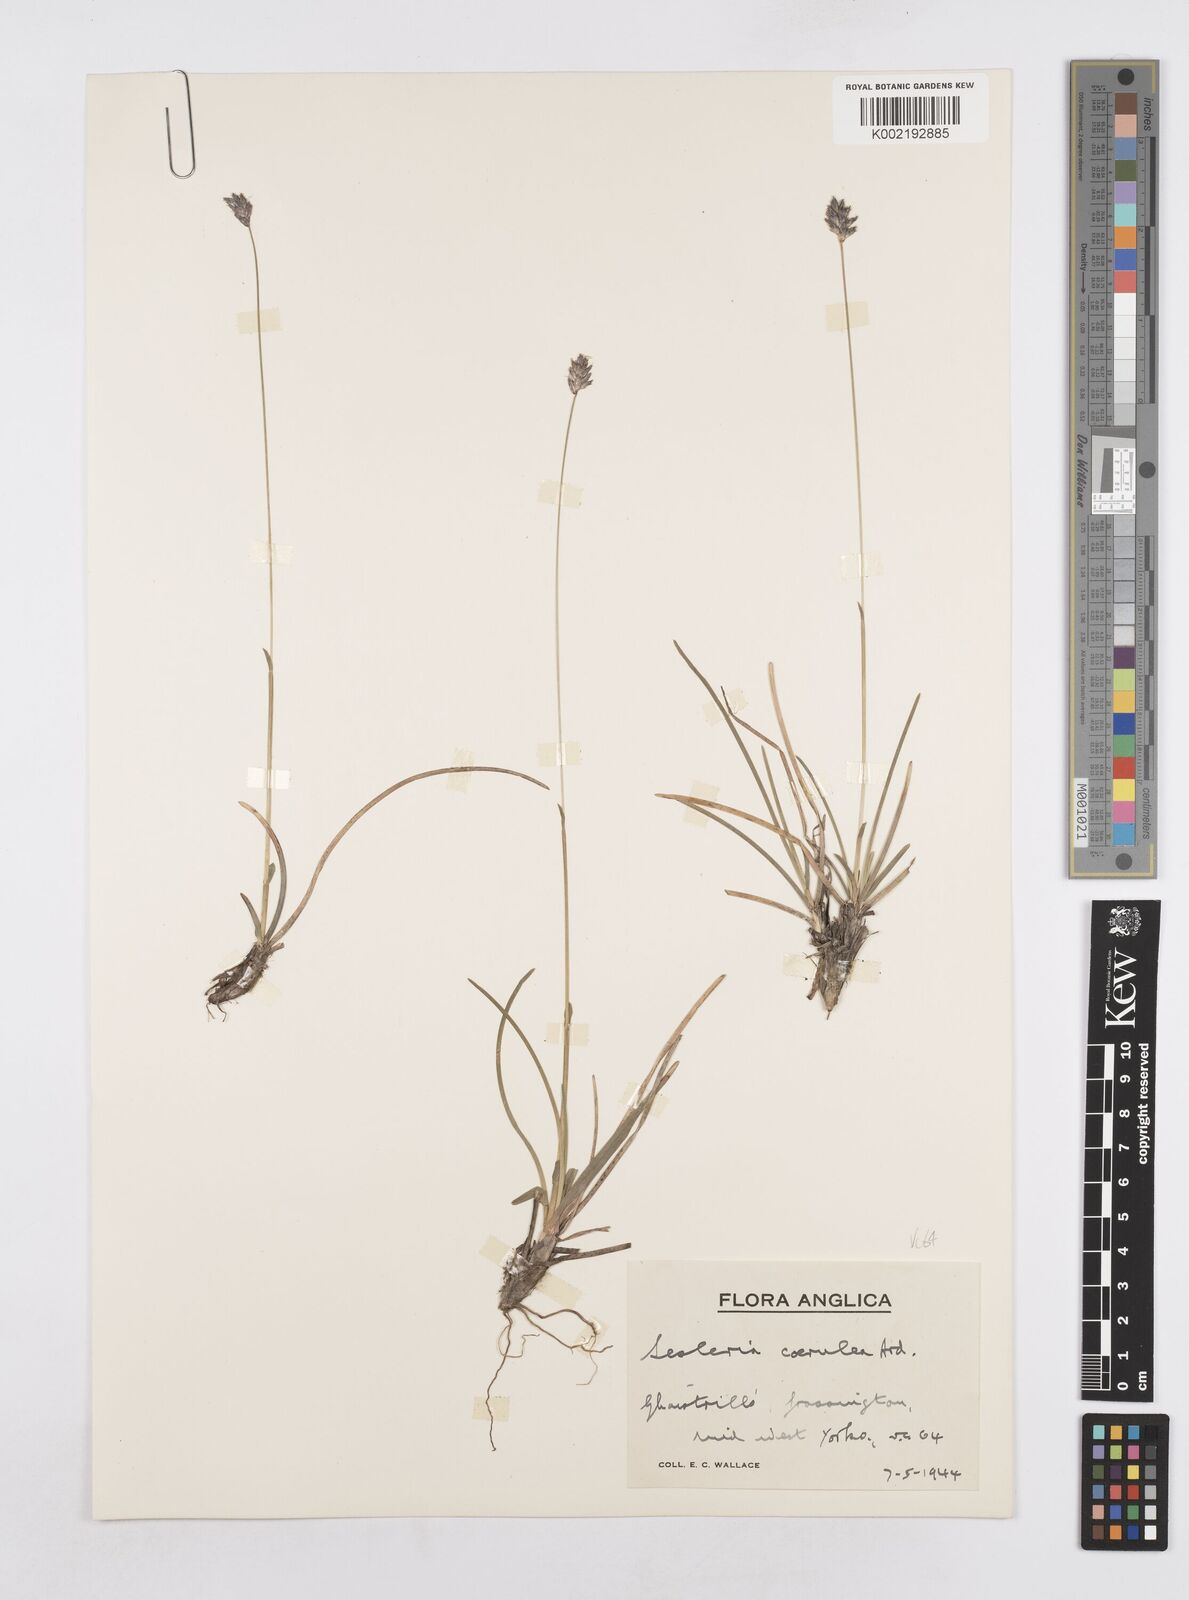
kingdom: Plantae
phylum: Tracheophyta
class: Liliopsida
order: Poales
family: Poaceae
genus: Sesleria
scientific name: Sesleria caerulea
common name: Blue moor-grass
